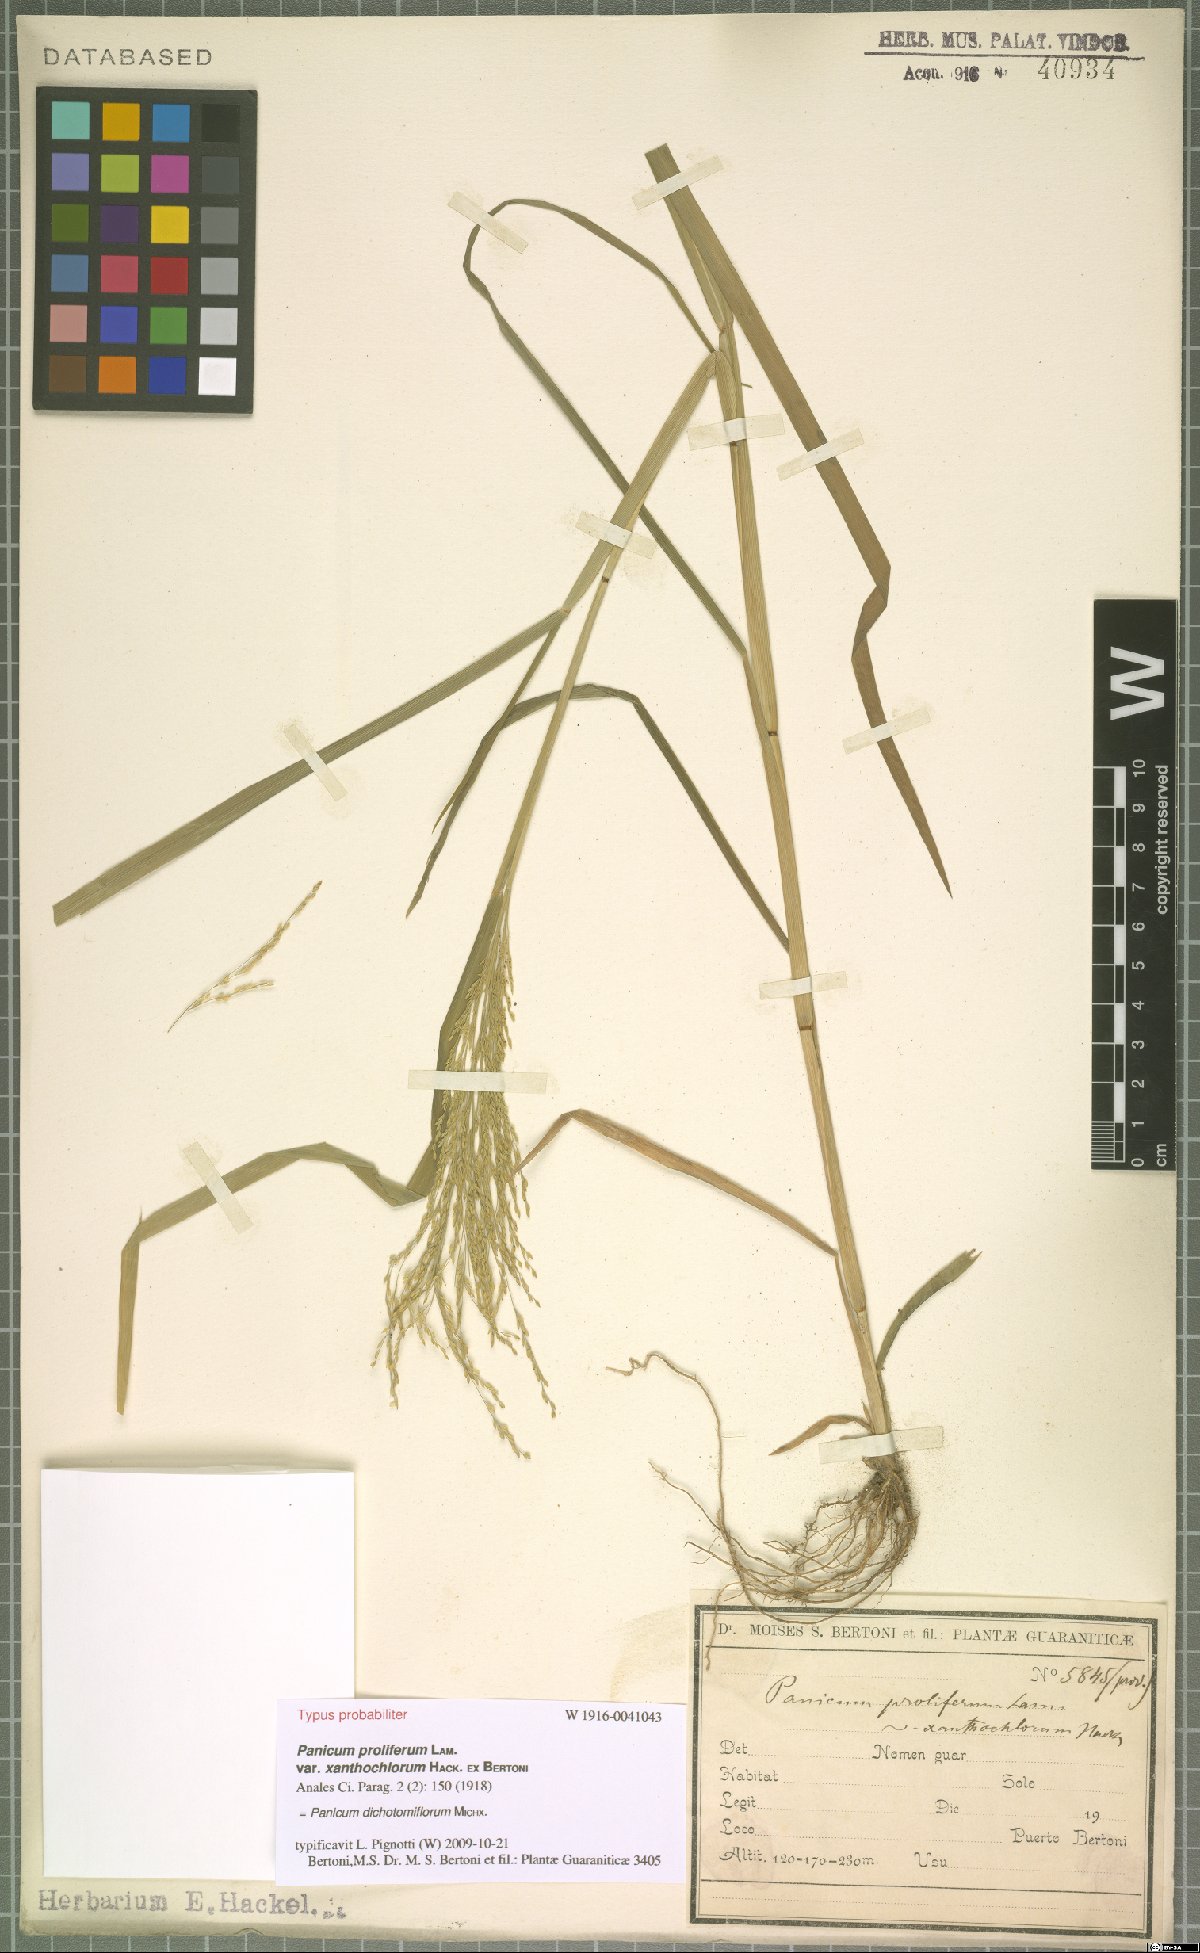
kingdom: Plantae
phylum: Tracheophyta
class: Liliopsida
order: Poales
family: Poaceae
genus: Panicum
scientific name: Panicum dichotomiflorum
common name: Autumn millet
